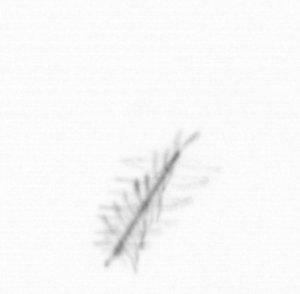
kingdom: Chromista
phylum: Ochrophyta
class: Bacillariophyceae
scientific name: Bacillariophyceae
